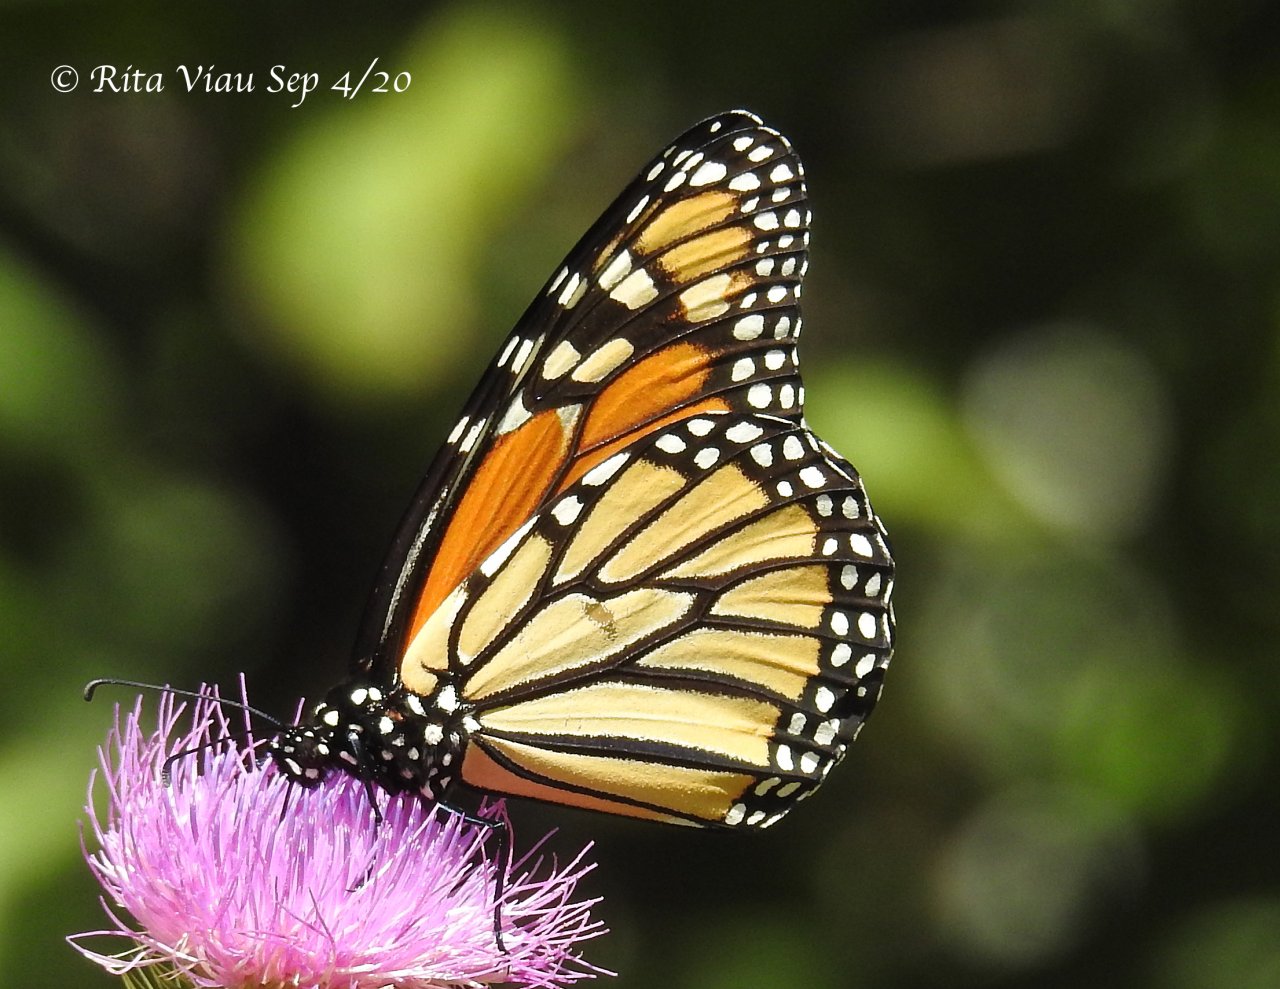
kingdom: Animalia
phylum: Arthropoda
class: Insecta
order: Lepidoptera
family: Nymphalidae
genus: Danaus
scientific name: Danaus plexippus
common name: Monarch
